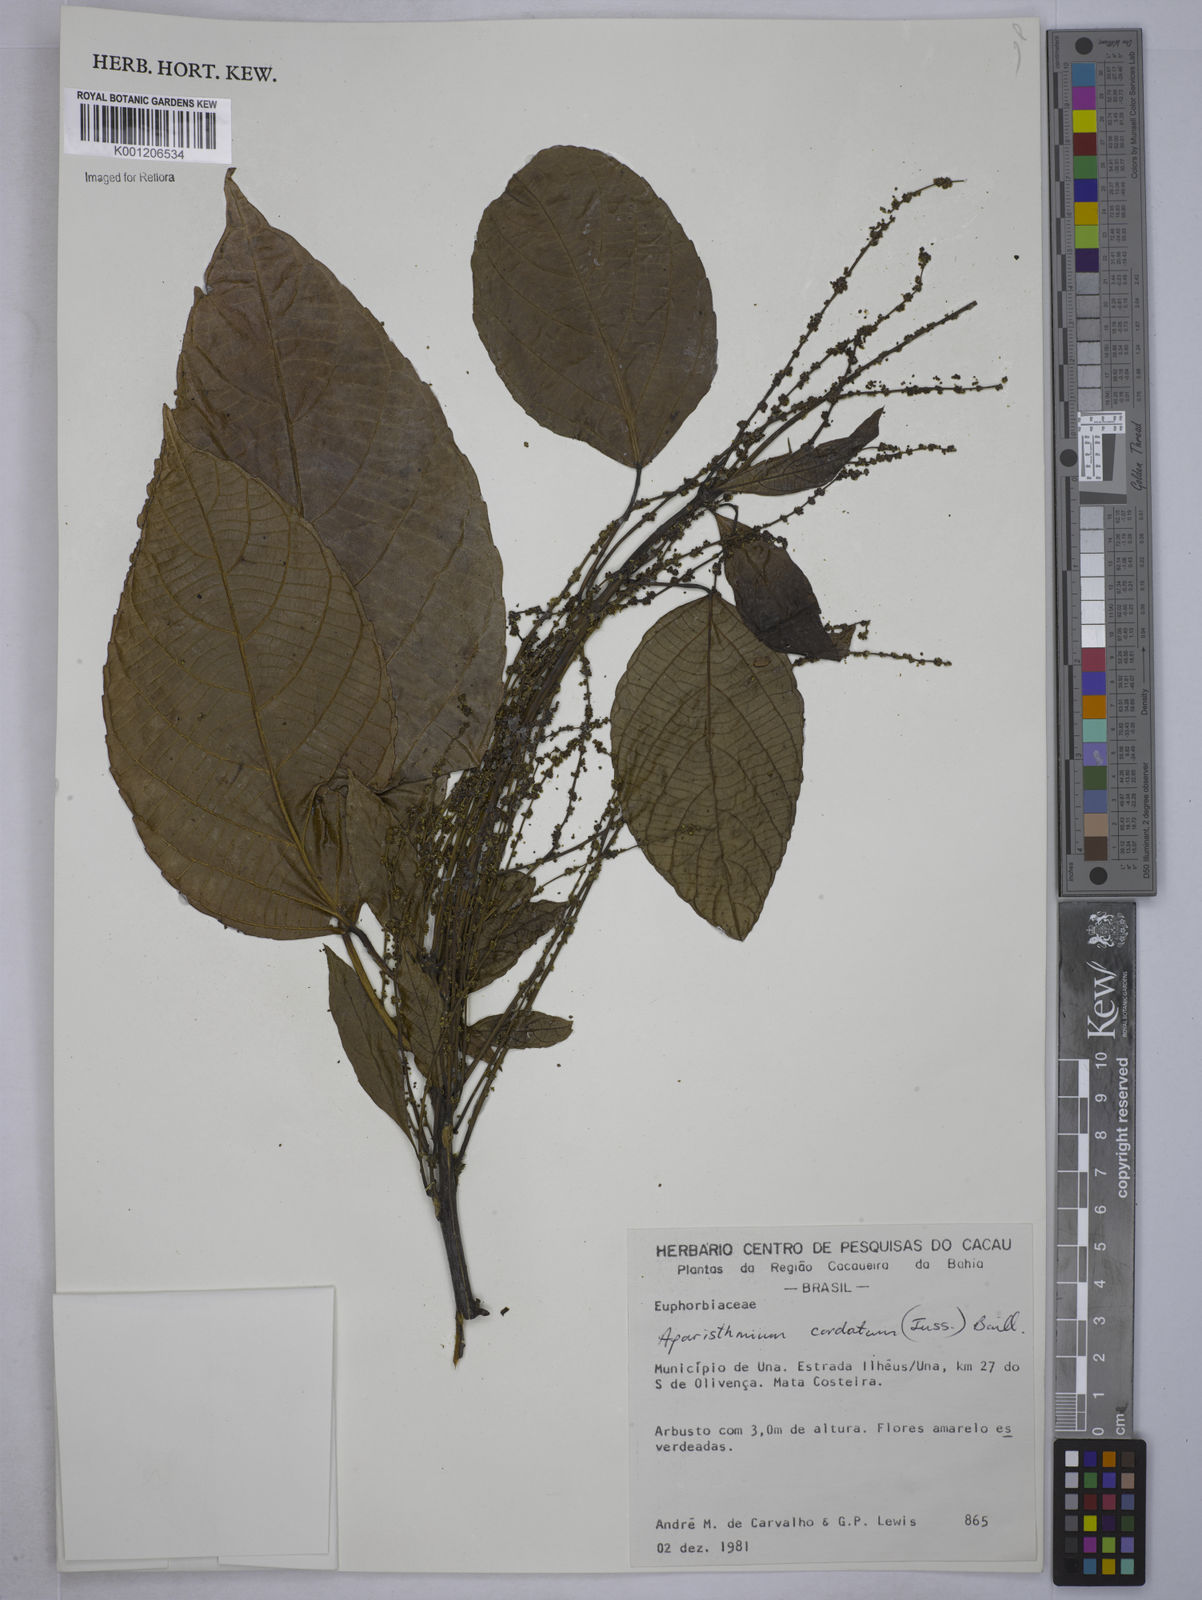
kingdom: Plantae
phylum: Tracheophyta
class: Magnoliopsida
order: Malpighiales
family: Euphorbiaceae
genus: Aparisthmium
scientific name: Aparisthmium cordatum
